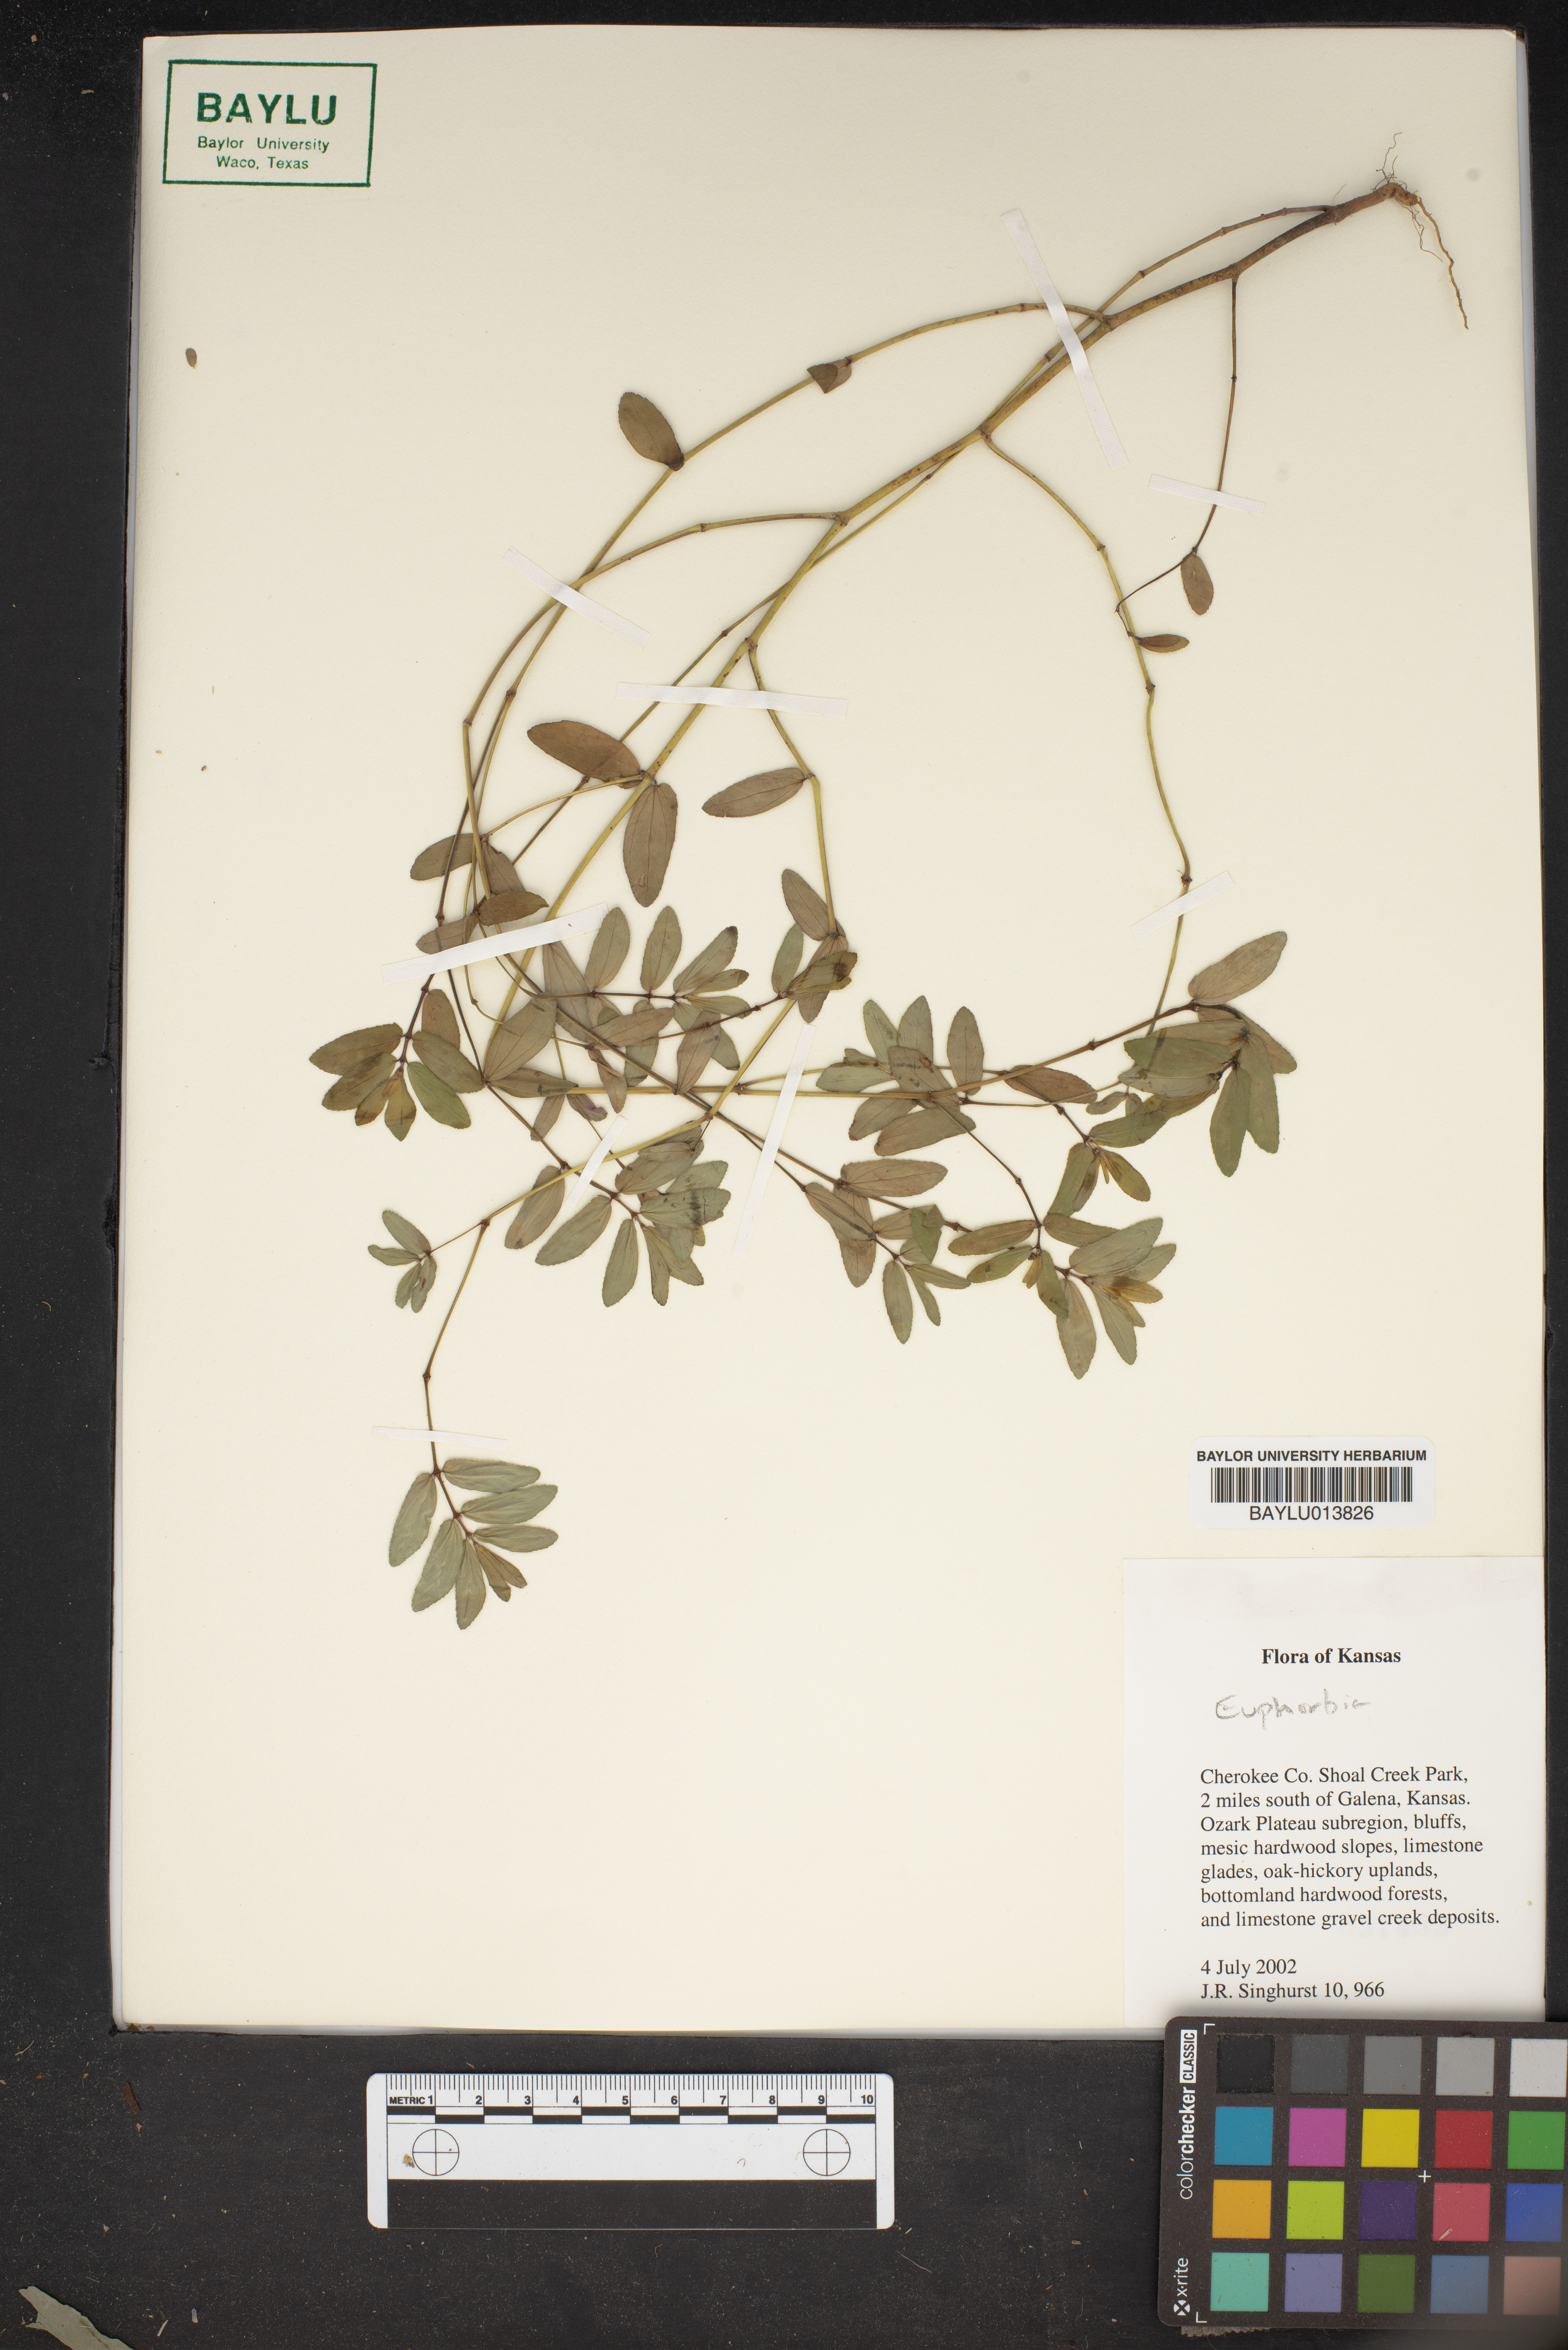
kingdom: Plantae
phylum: Tracheophyta
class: Magnoliopsida
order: Malpighiales
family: Euphorbiaceae
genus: Euphorbia
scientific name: Euphorbia
